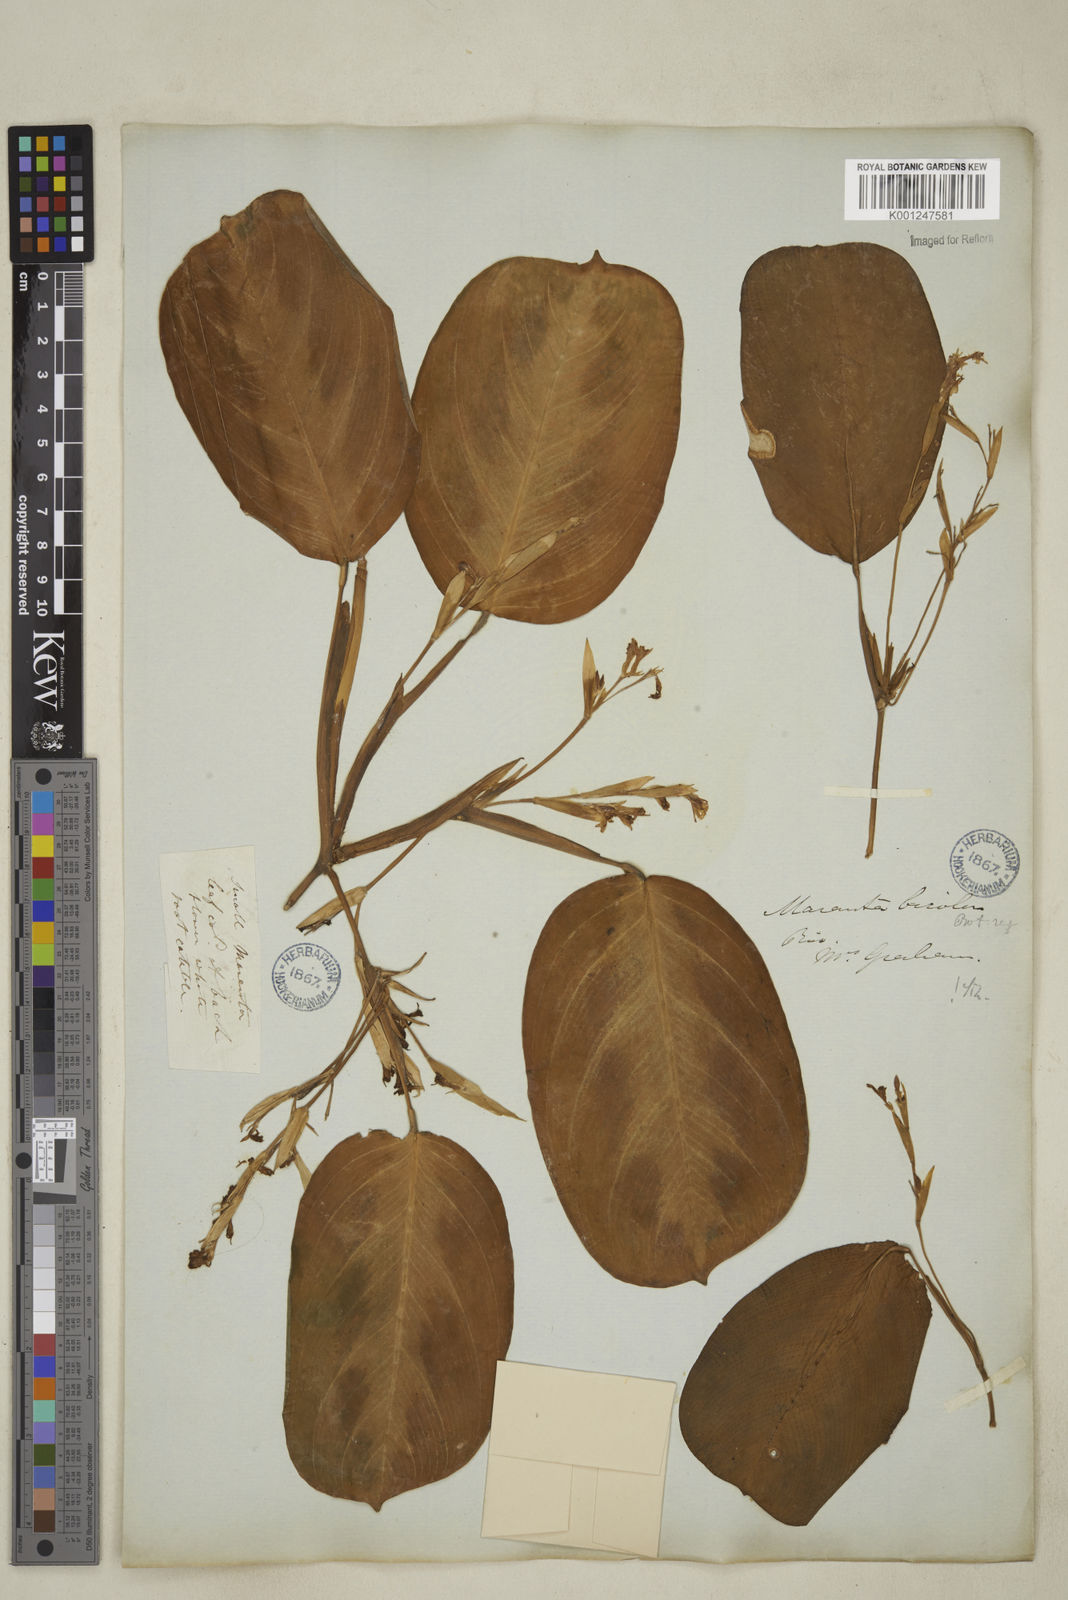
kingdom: Plantae
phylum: Tracheophyta
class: Liliopsida
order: Zingiberales
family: Marantaceae
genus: Maranta
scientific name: Maranta cristata
